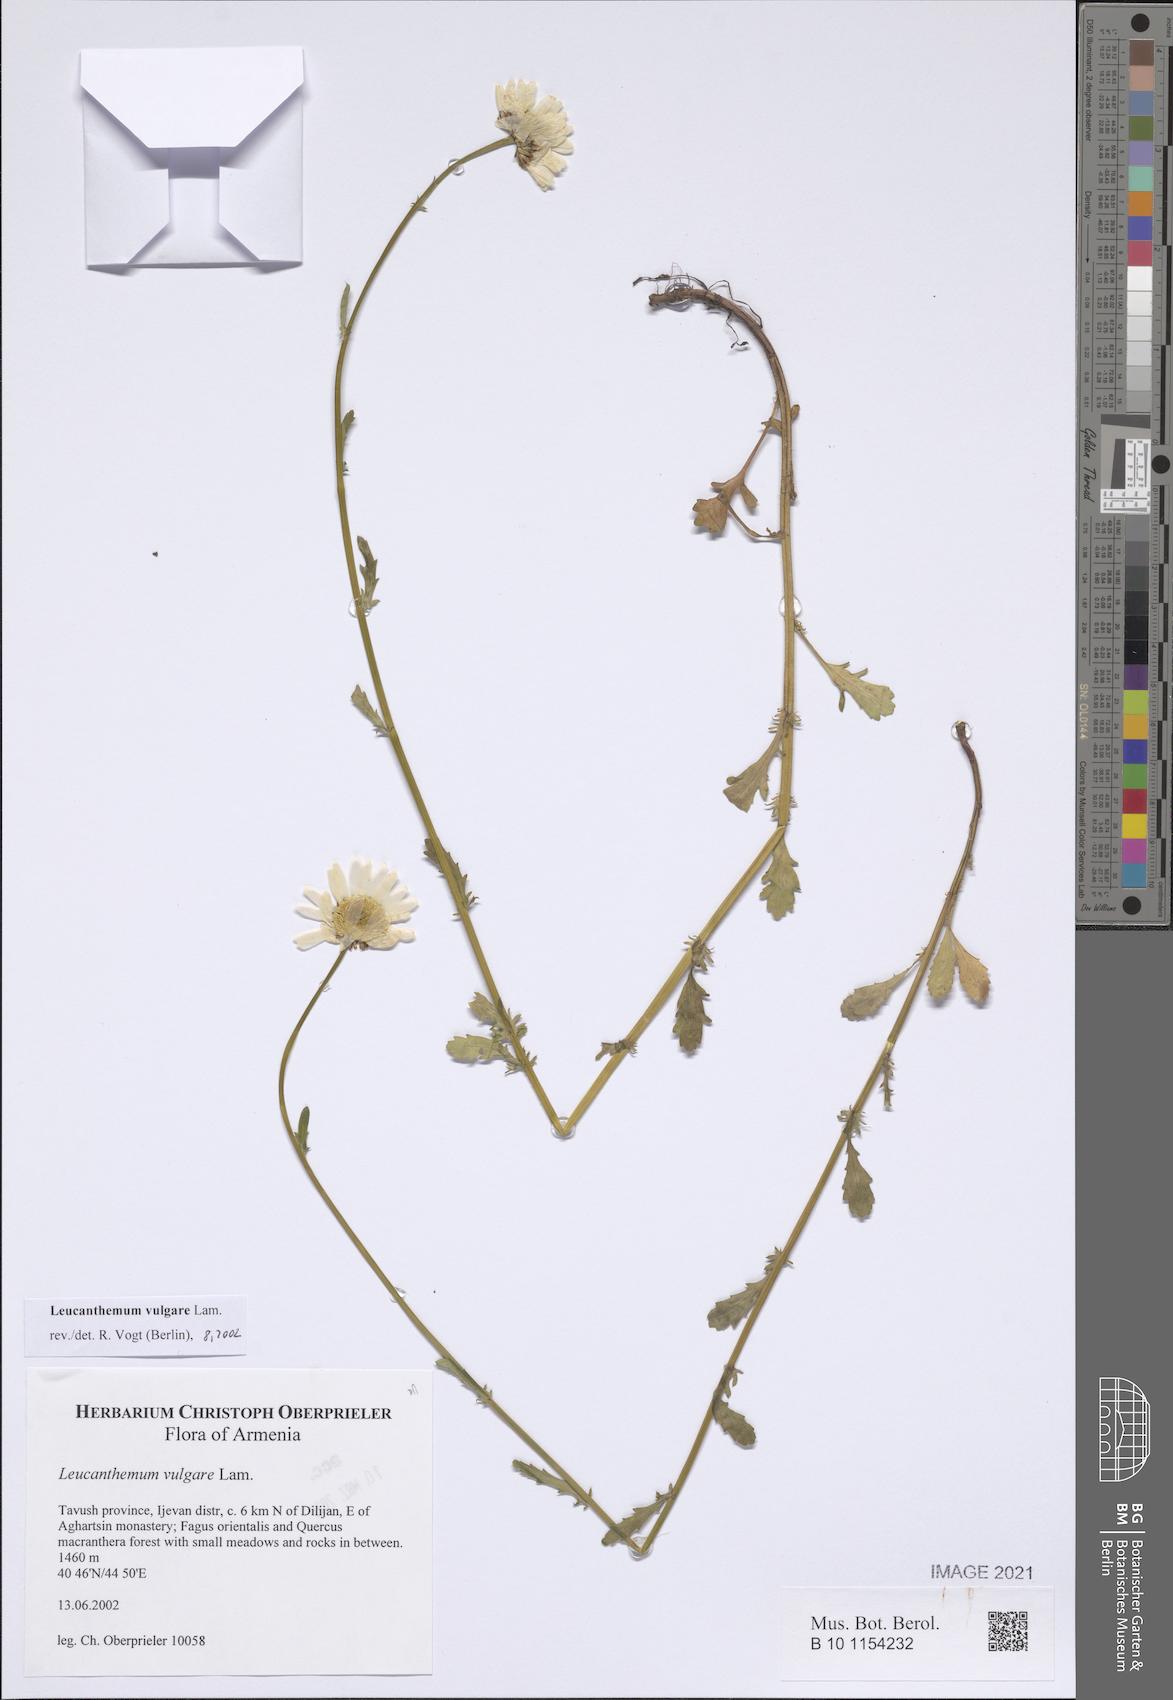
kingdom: Plantae
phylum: Tracheophyta
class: Magnoliopsida
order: Asterales
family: Asteraceae
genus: Leucanthemum
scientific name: Leucanthemum vulgare
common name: Oxeye daisy
